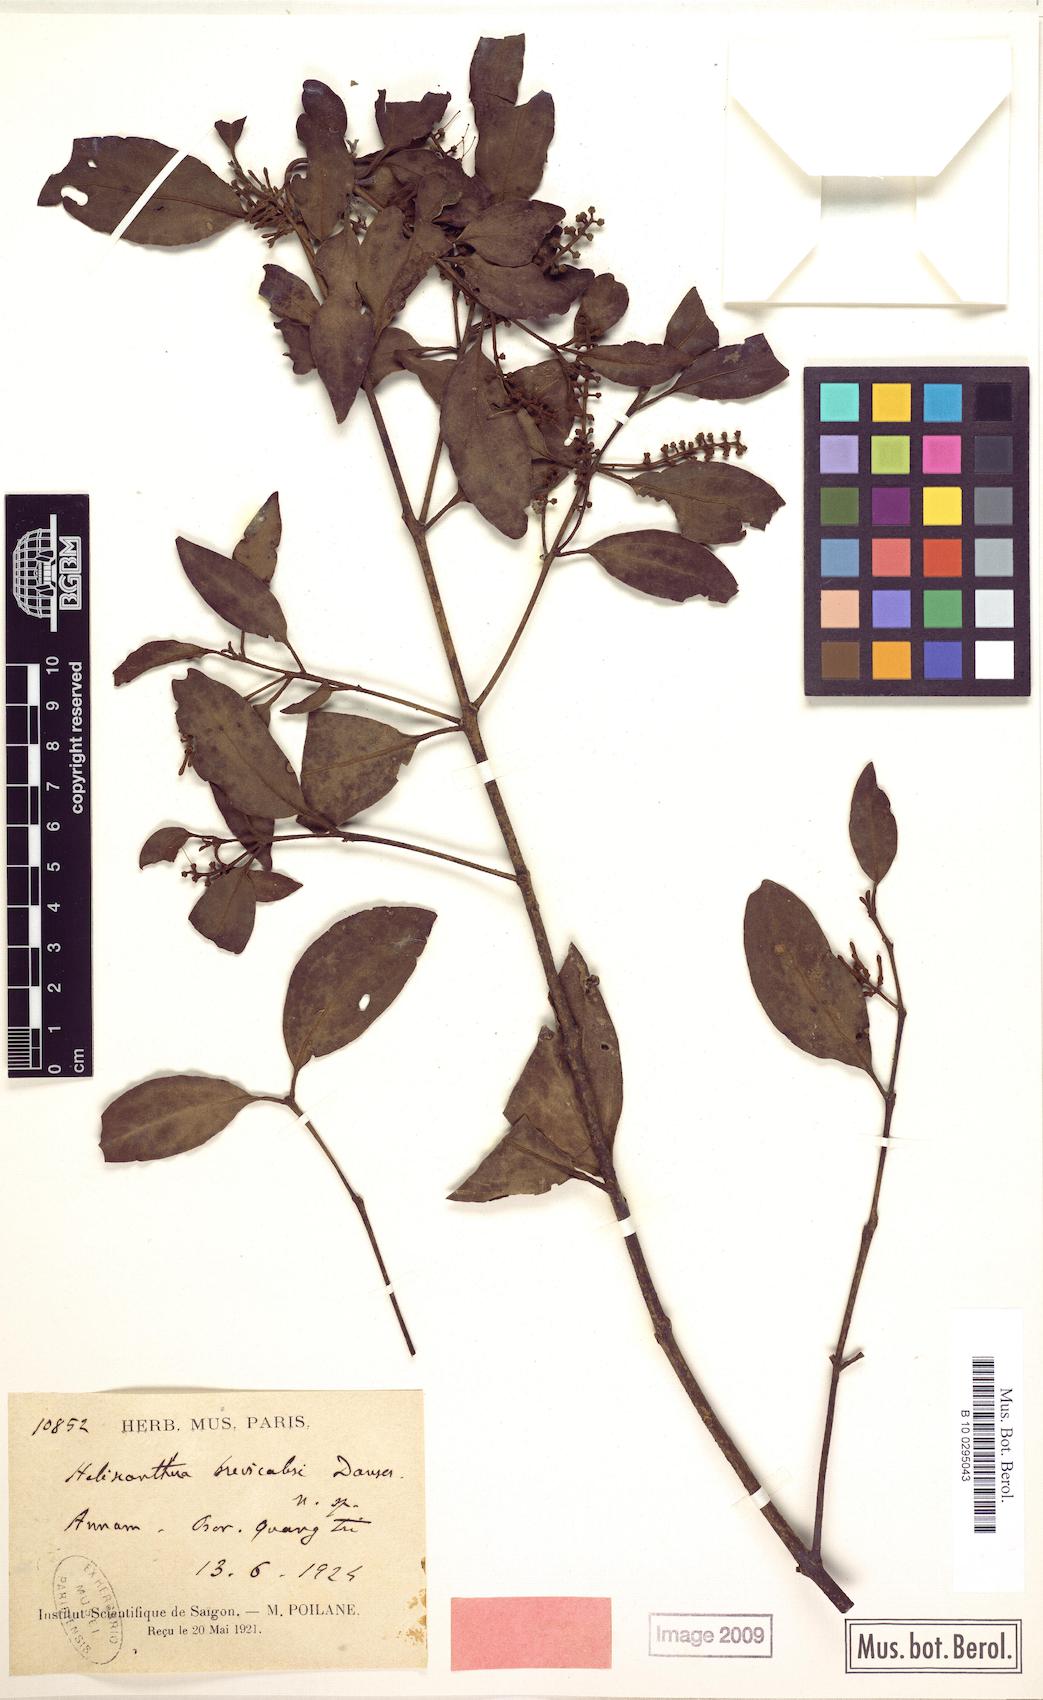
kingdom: Plantae
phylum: Tracheophyta
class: Magnoliopsida
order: Santalales
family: Loranthaceae
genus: Helixanthera
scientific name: Helixanthera brevicalyx
